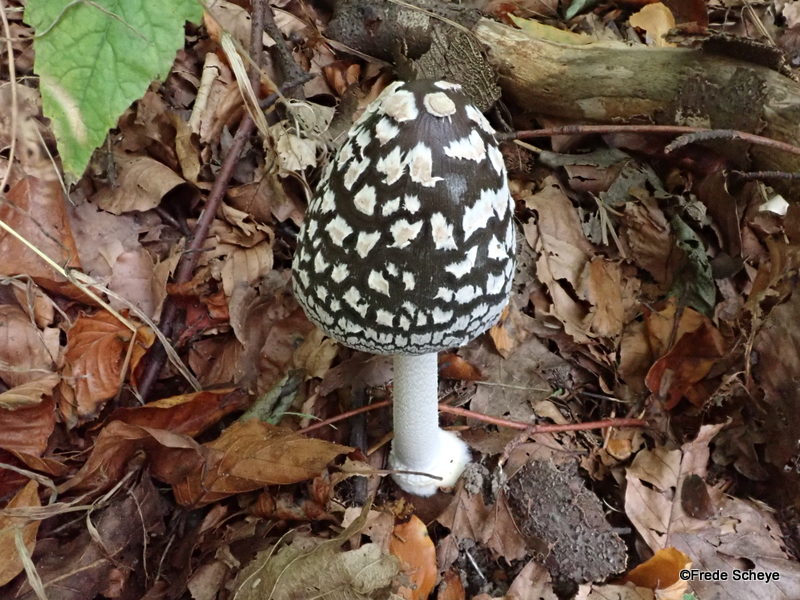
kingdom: Fungi
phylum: Basidiomycota
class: Agaricomycetes
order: Agaricales
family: Psathyrellaceae
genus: Coprinopsis
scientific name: Coprinopsis picacea
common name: skade-blækhat
